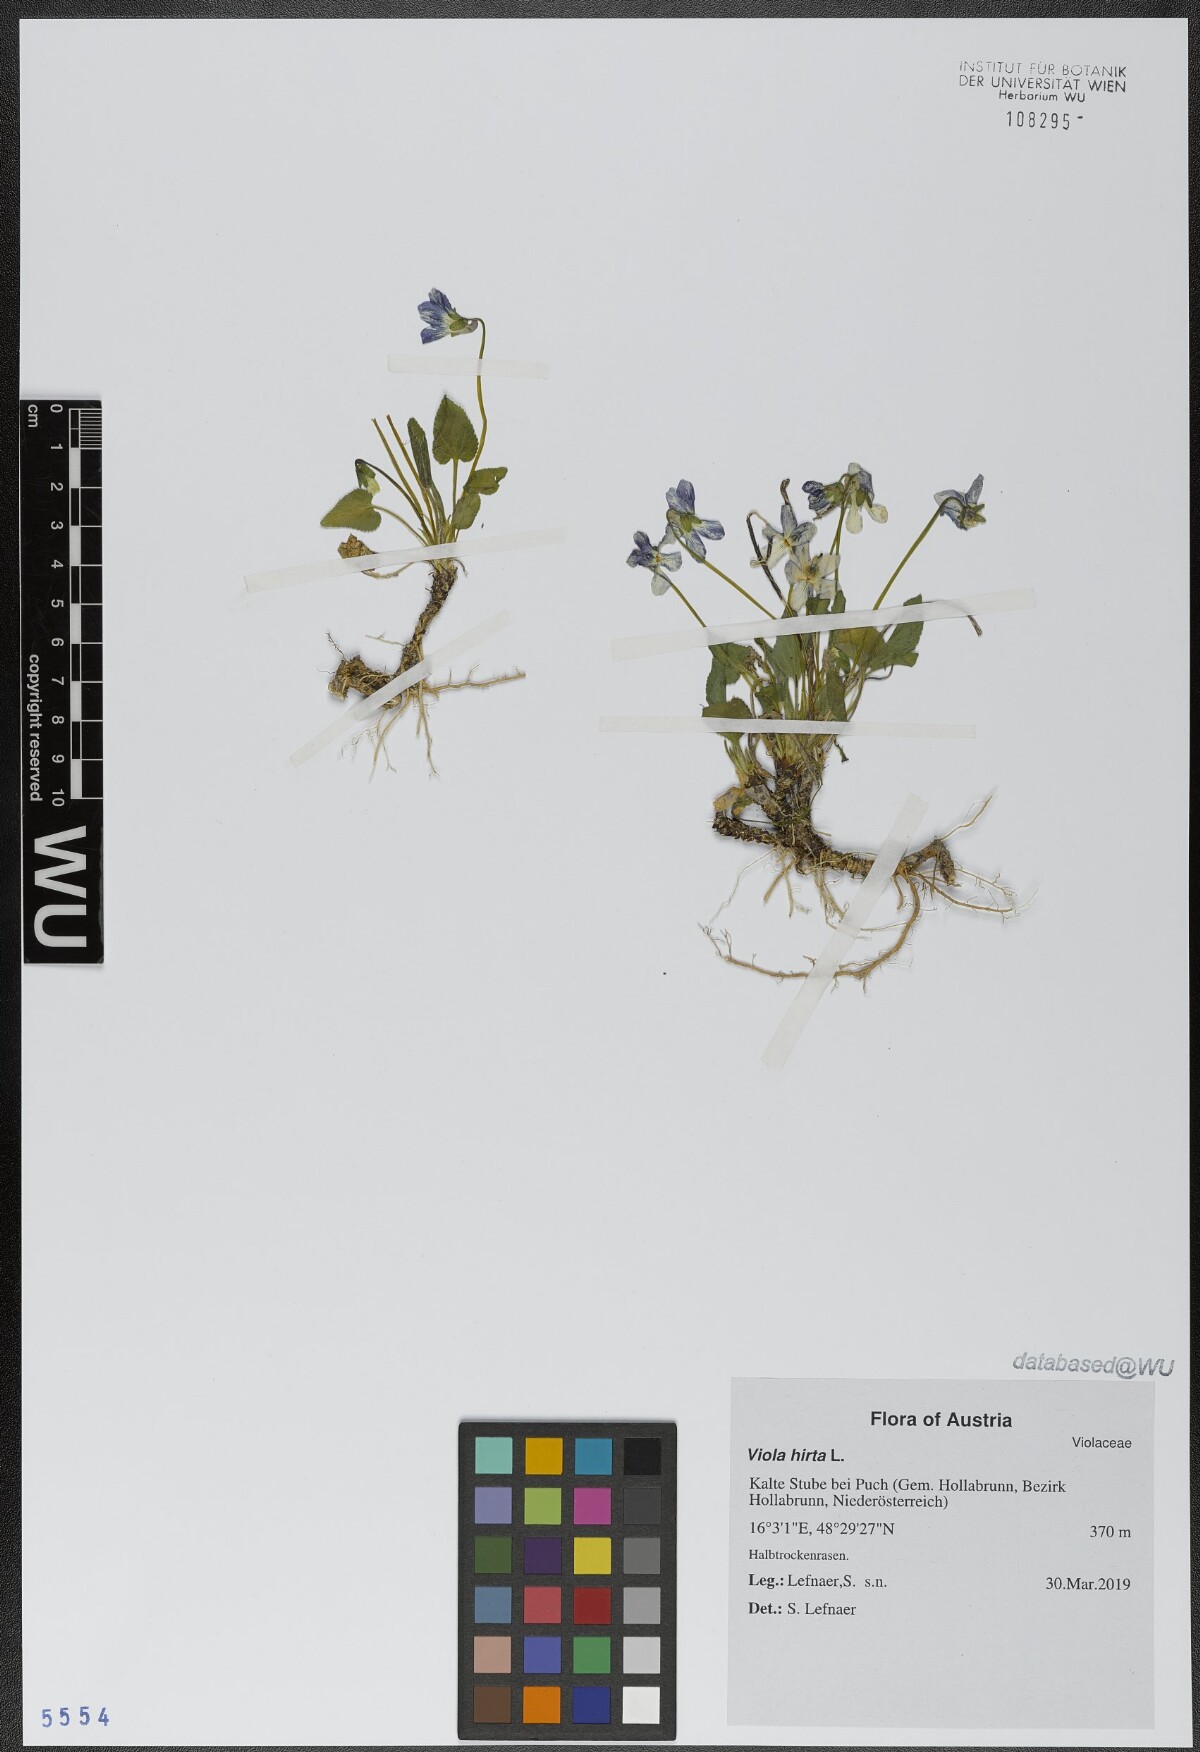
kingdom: Plantae
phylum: Tracheophyta
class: Magnoliopsida
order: Malpighiales
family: Violaceae
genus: Viola
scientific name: Viola hirta
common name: Hairy violet
